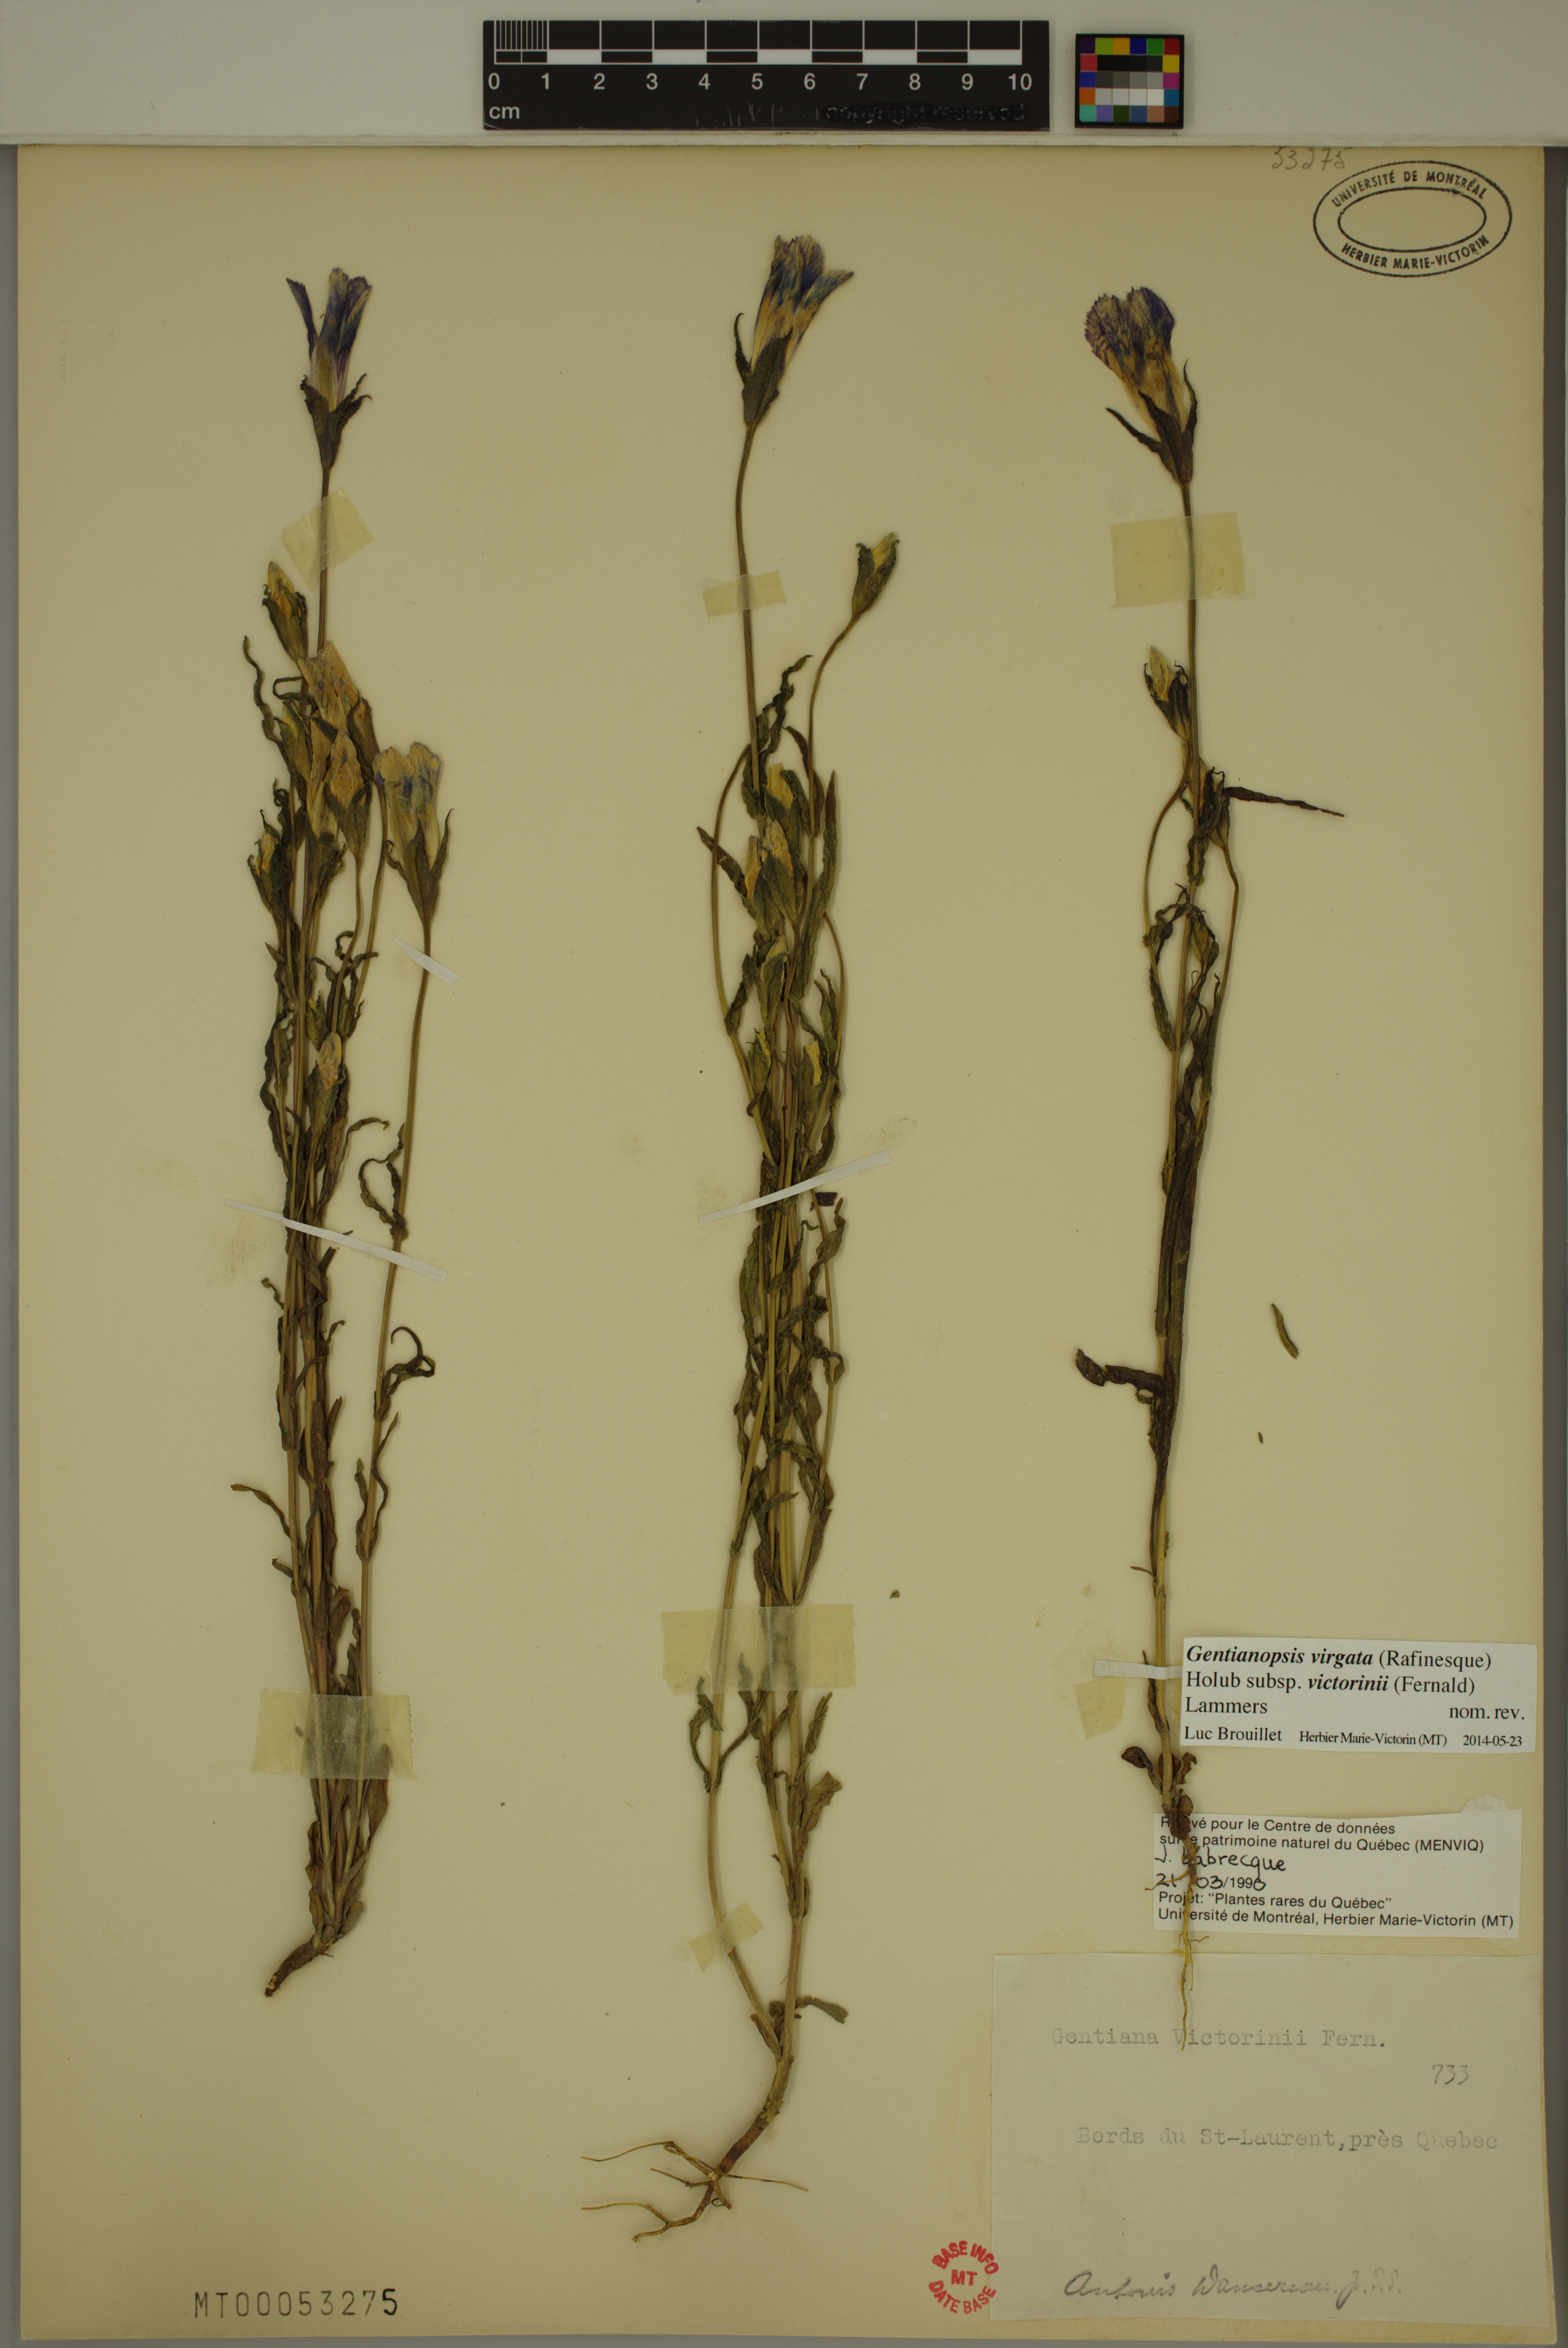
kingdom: Plantae
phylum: Tracheophyta
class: Magnoliopsida
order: Gentianales
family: Gentianaceae
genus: Gentianopsis
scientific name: Gentianopsis victorinii
